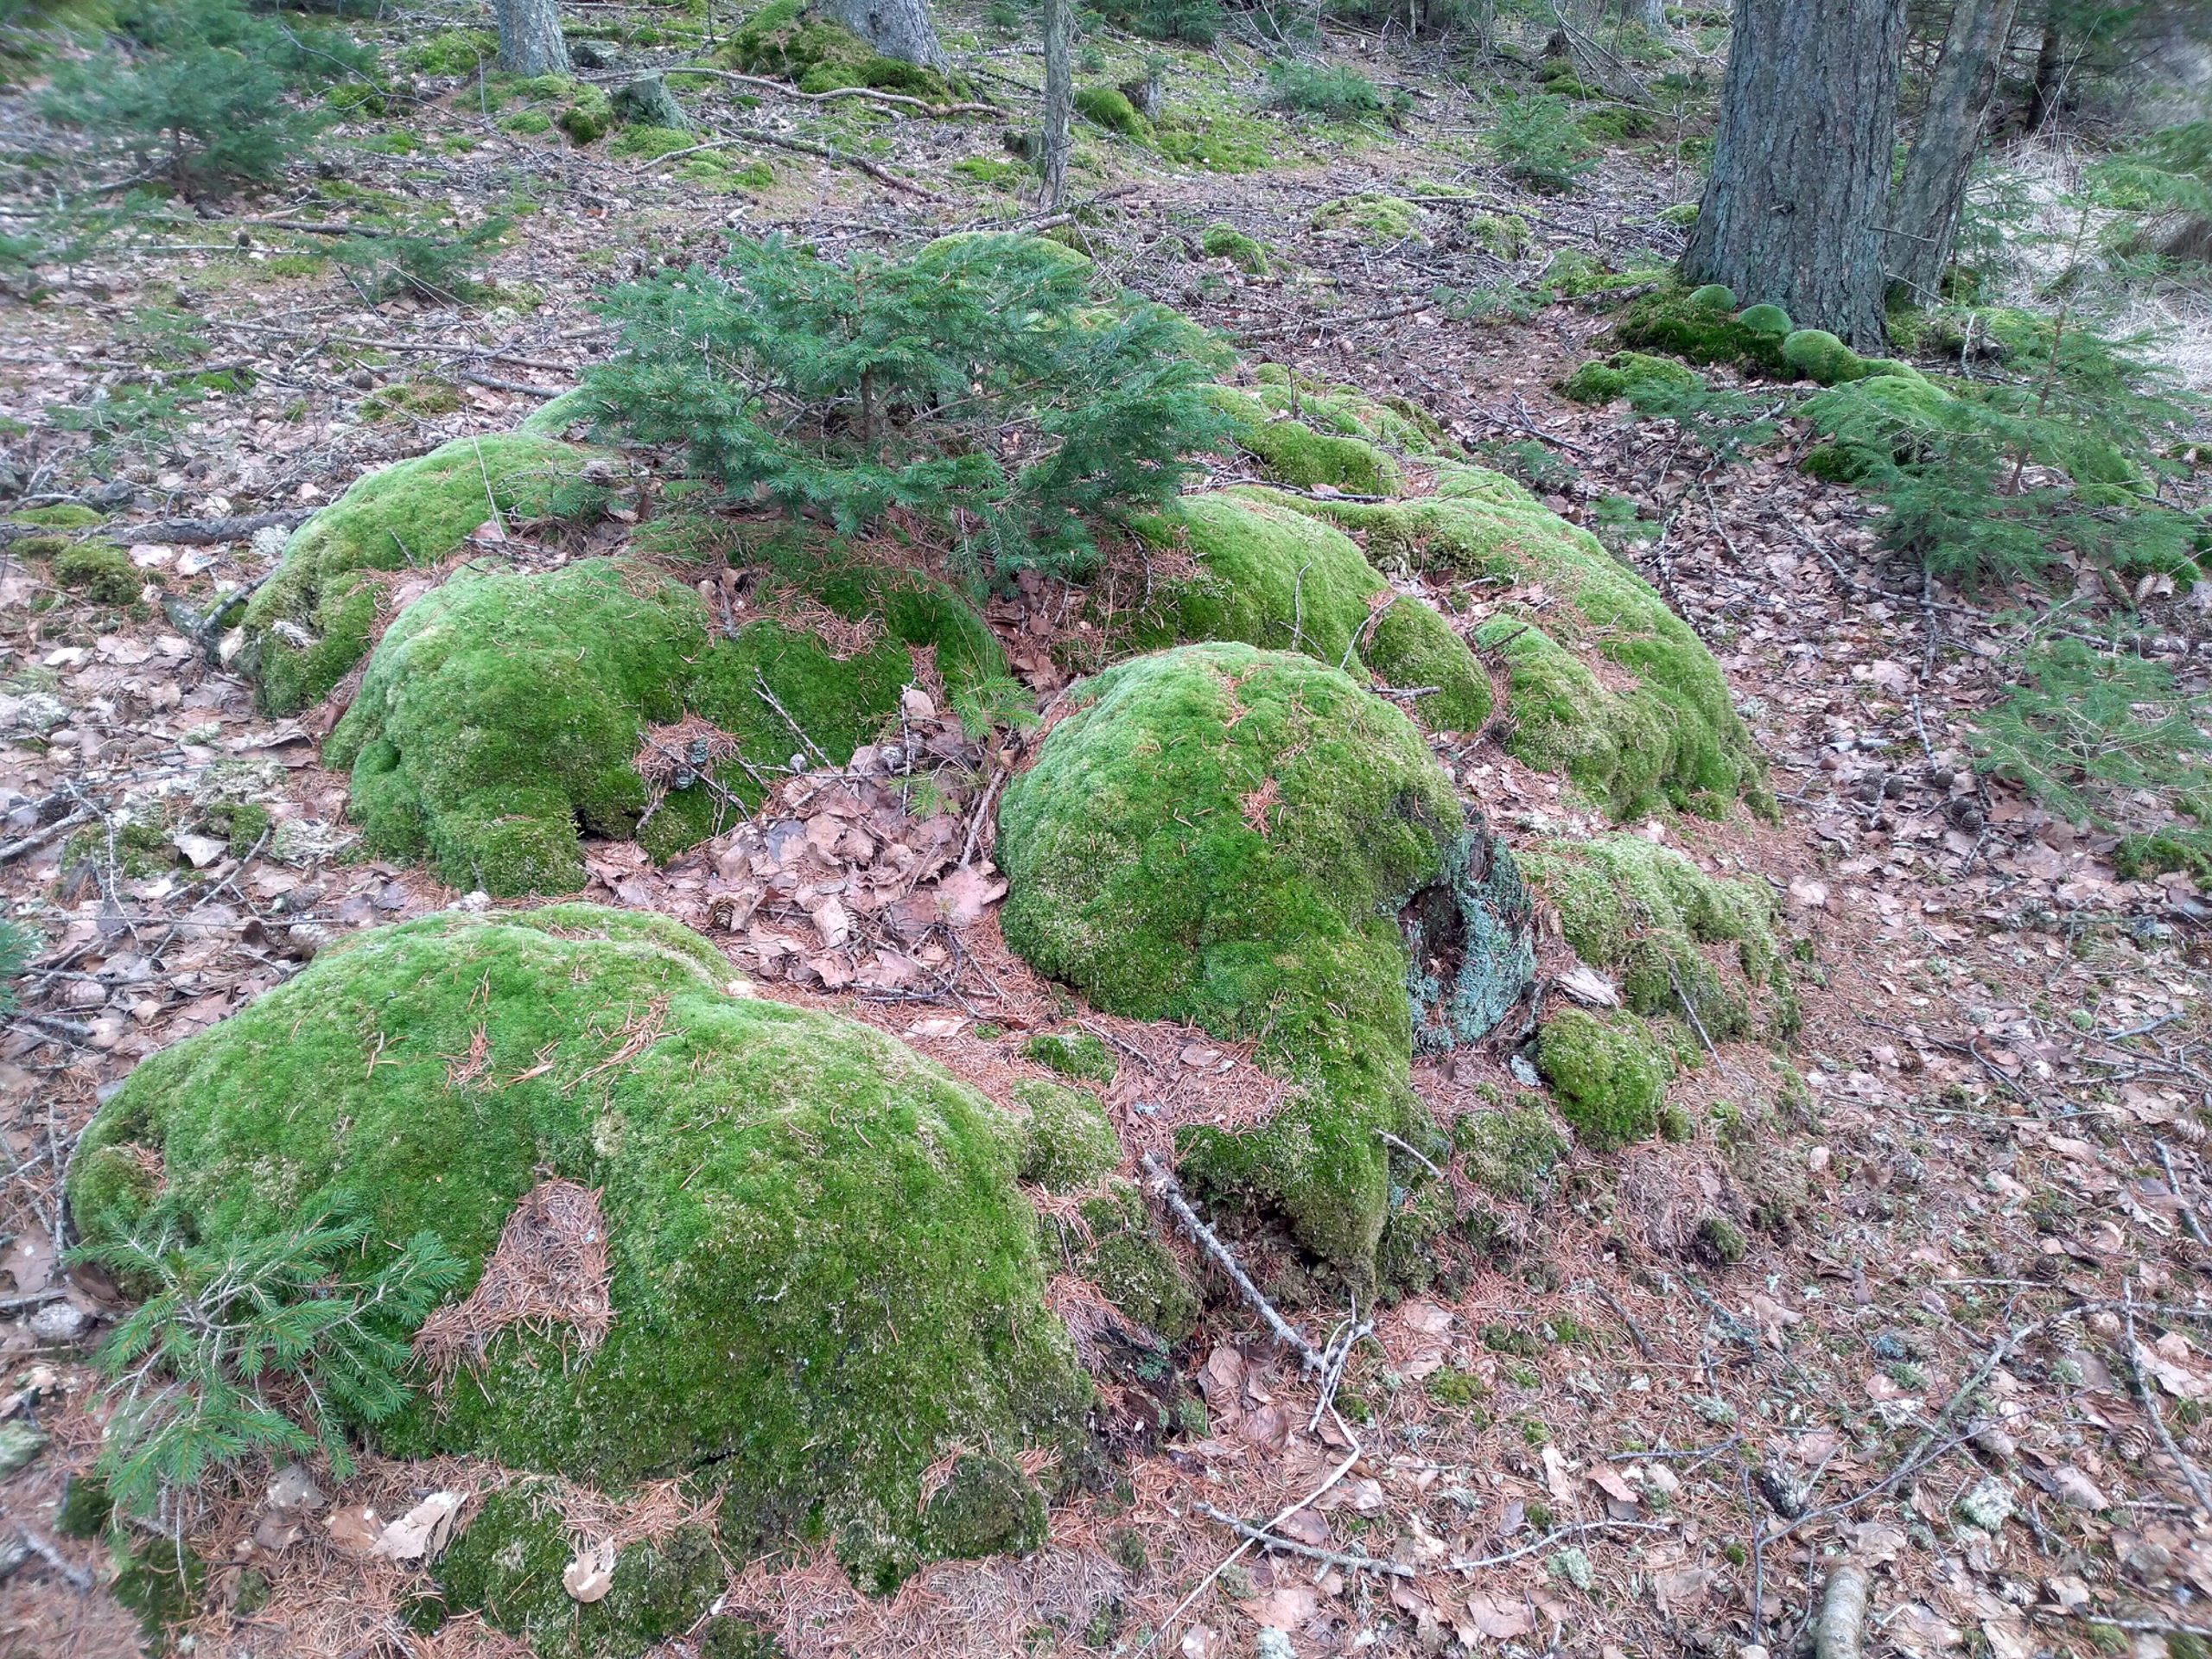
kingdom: Plantae
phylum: Bryophyta
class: Bryopsida
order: Dicranales
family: Leucobryaceae
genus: Leucobryum
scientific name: Leucobryum glaucum
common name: Almindelig hvidmos
